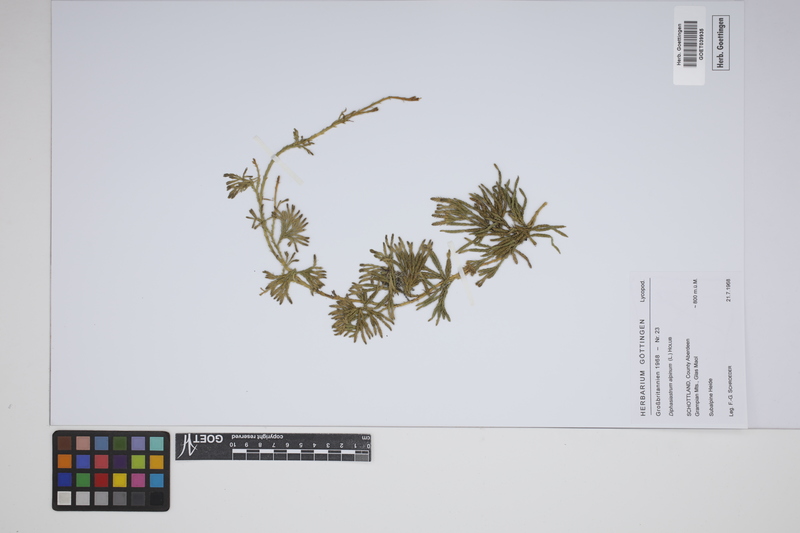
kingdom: Plantae
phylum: Tracheophyta
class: Lycopodiopsida
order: Lycopodiales
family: Lycopodiaceae
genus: Diphasiastrum
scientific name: Diphasiastrum alpinum
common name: Alpine clubmoss
